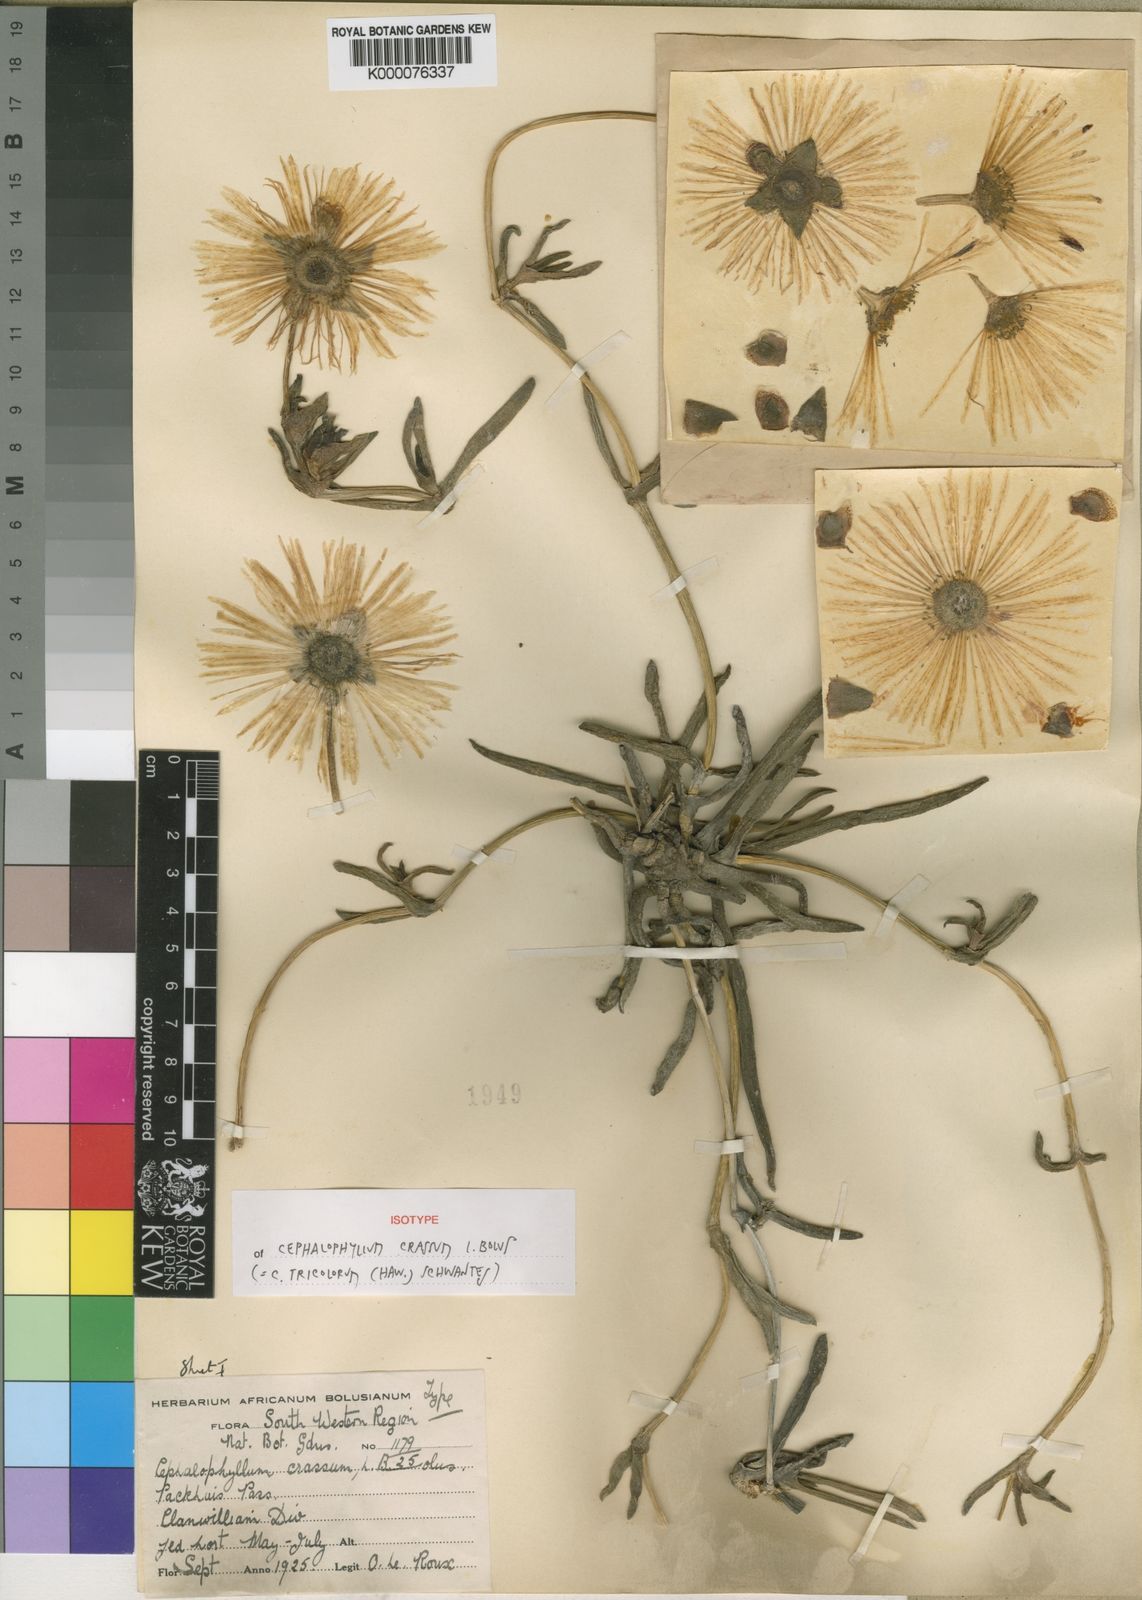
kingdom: Plantae
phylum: Tracheophyta
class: Magnoliopsida
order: Caryophyllales
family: Aizoaceae
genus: Cephalophyllum
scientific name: Cephalophyllum tricolorum
